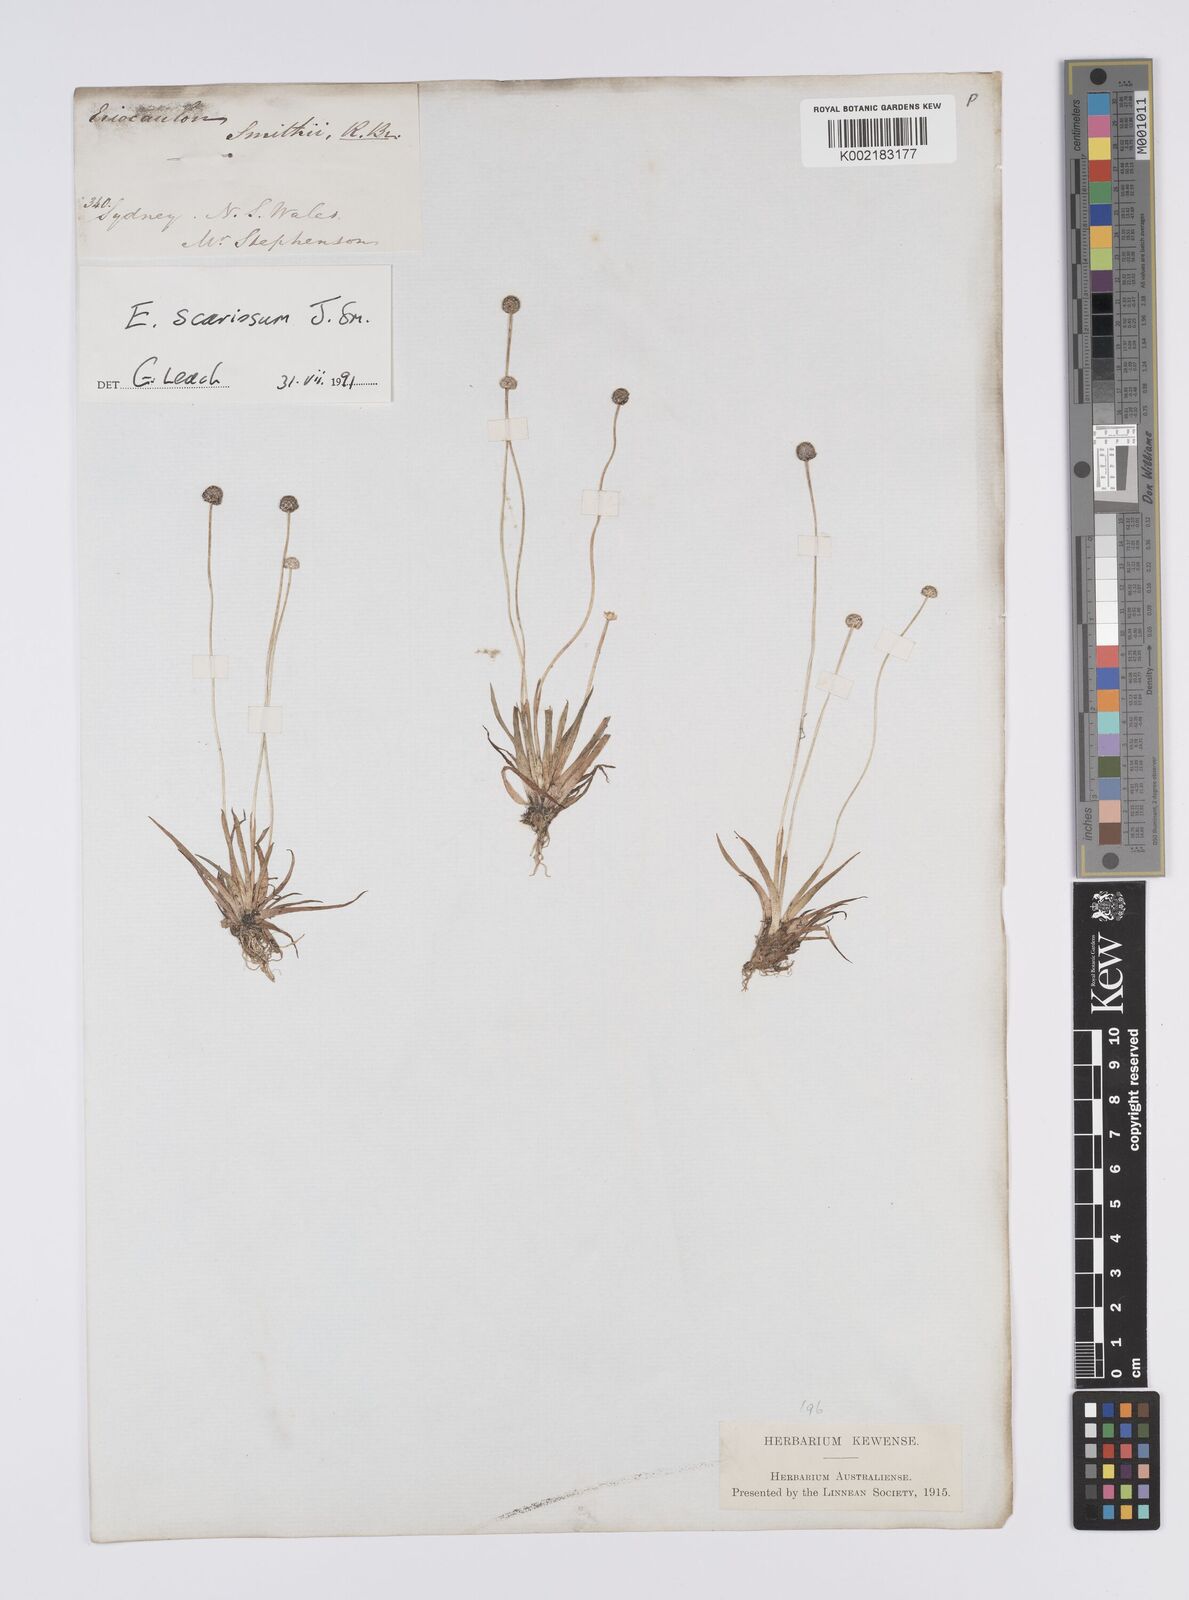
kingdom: Plantae
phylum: Tracheophyta
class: Liliopsida
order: Poales
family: Eriocaulaceae
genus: Eriocaulon
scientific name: Eriocaulon scariosum
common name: Rough pipewort
